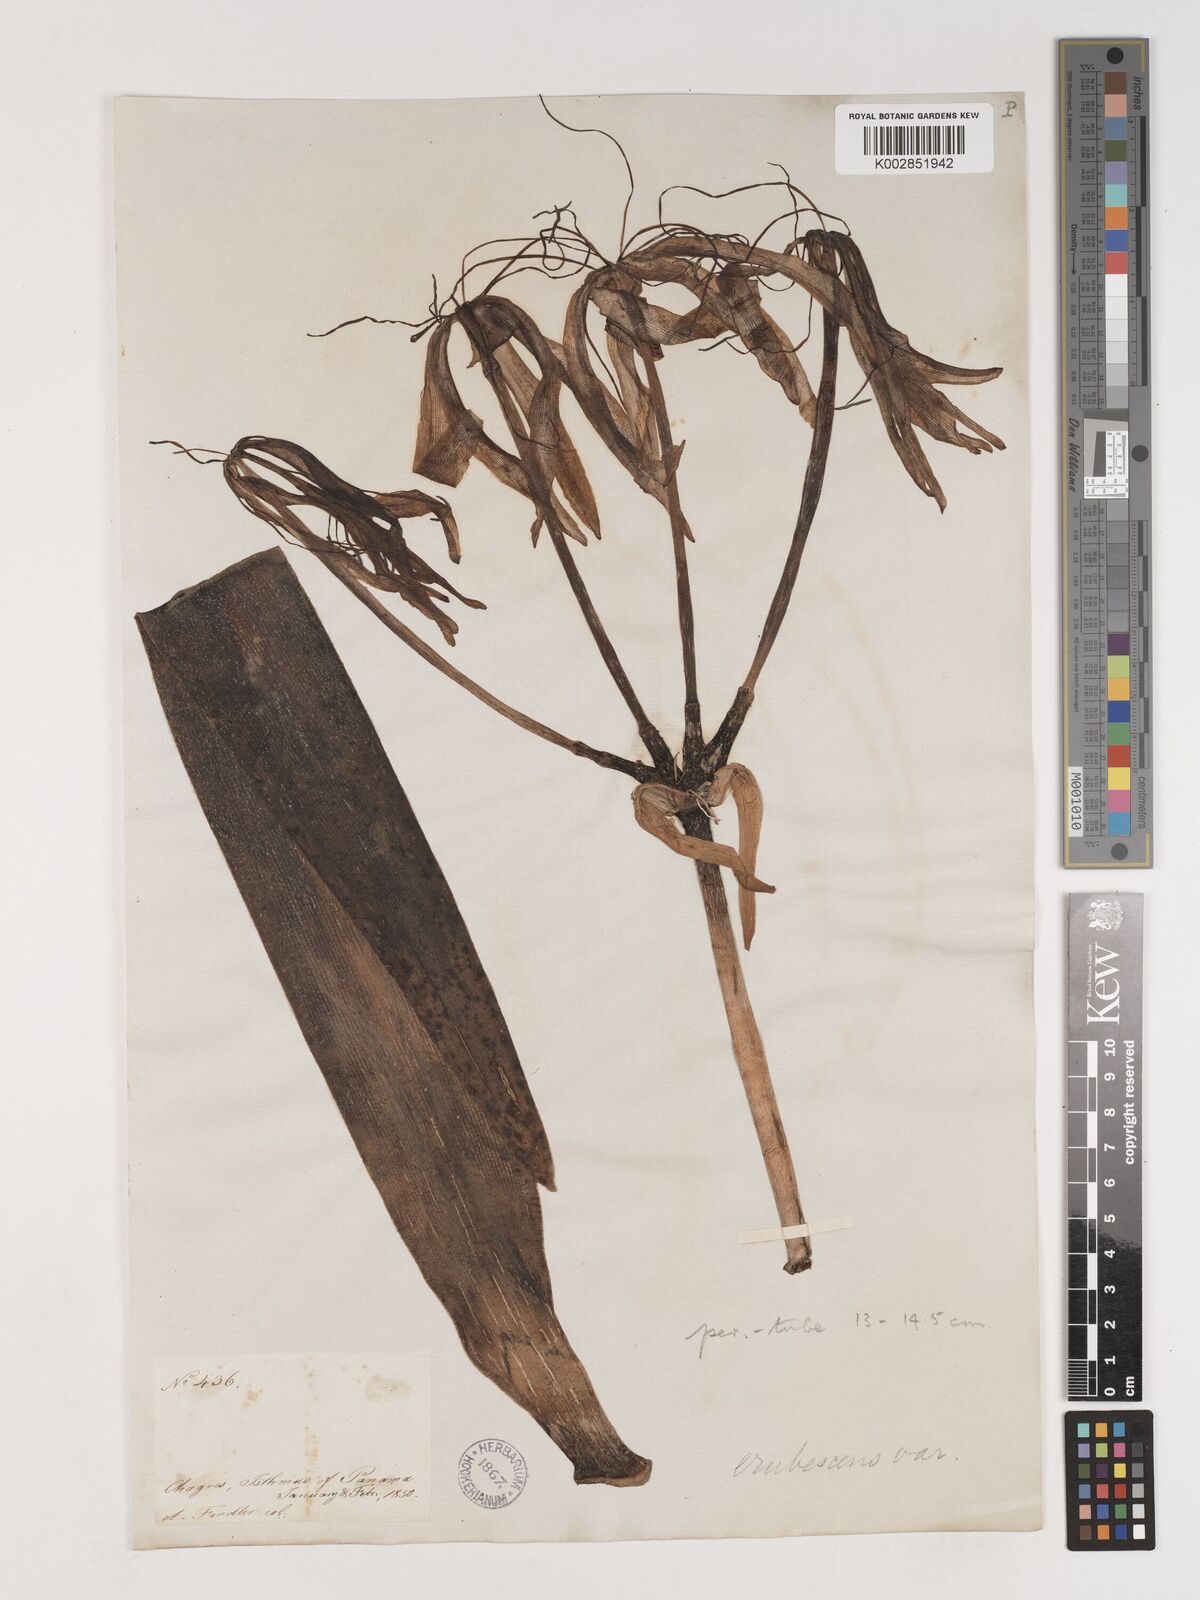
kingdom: Plantae
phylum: Tracheophyta
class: Liliopsida
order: Asparagales
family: Amaryllidaceae
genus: Crinum
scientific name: Crinum americanum
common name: Florida swamp-lily
